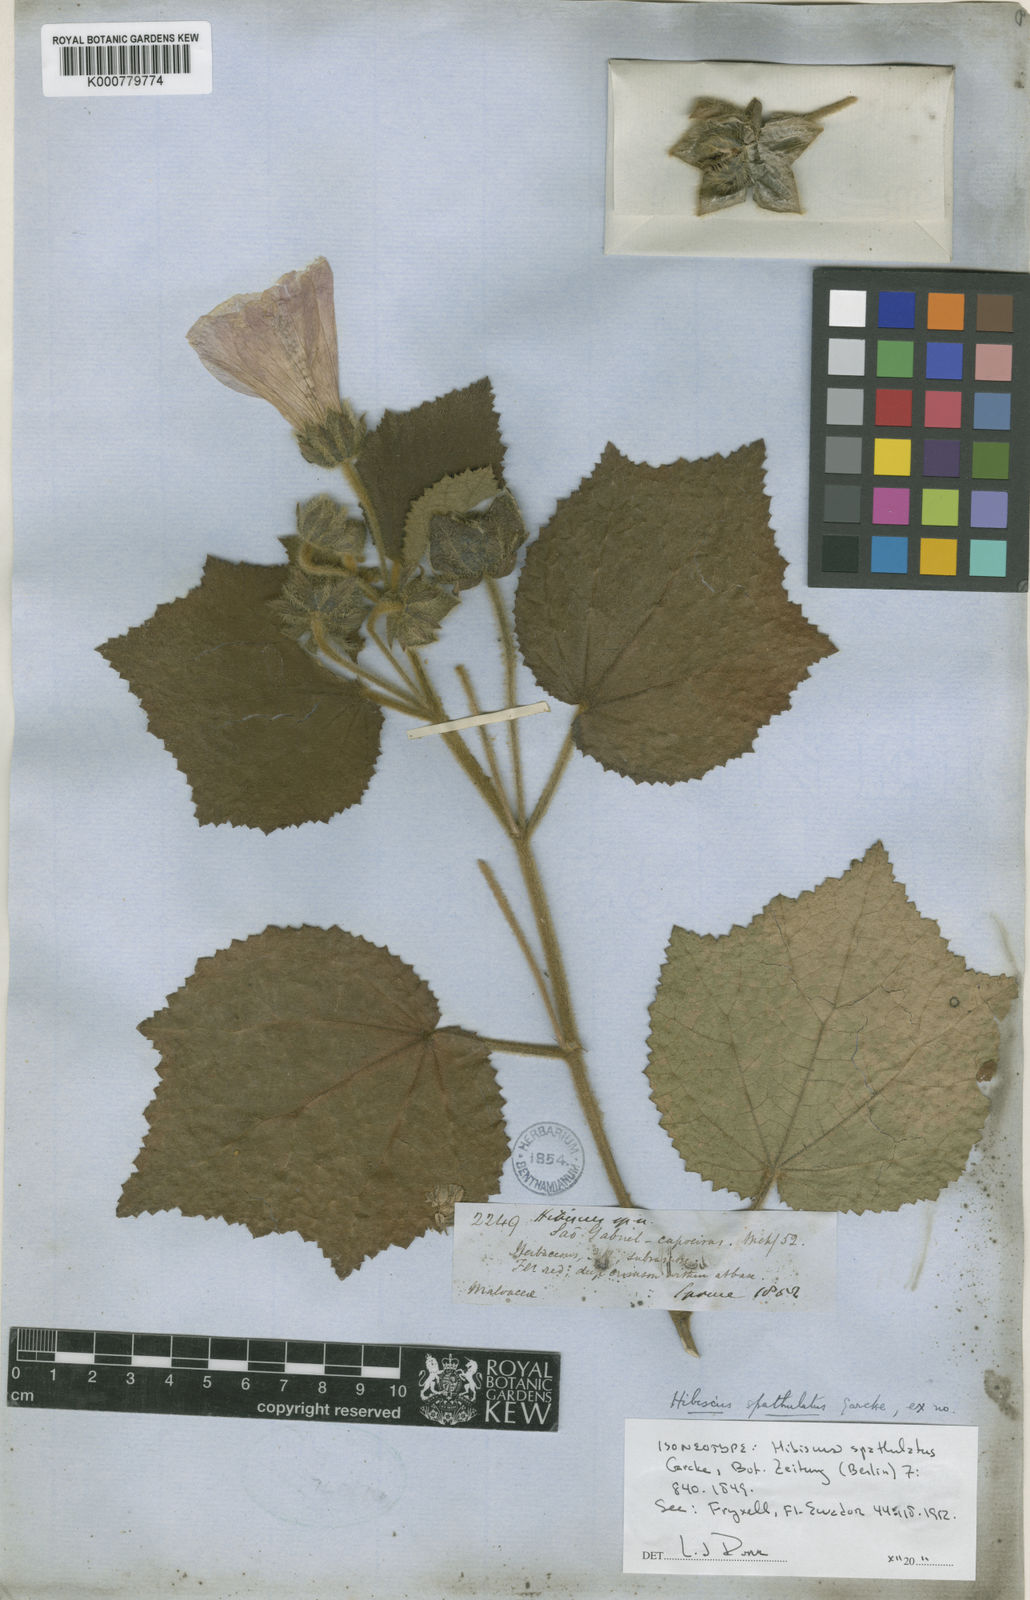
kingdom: Plantae
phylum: Tracheophyta
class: Magnoliopsida
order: Malvales
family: Malvaceae
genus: Hibiscus
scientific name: Hibiscus verbasciformis
